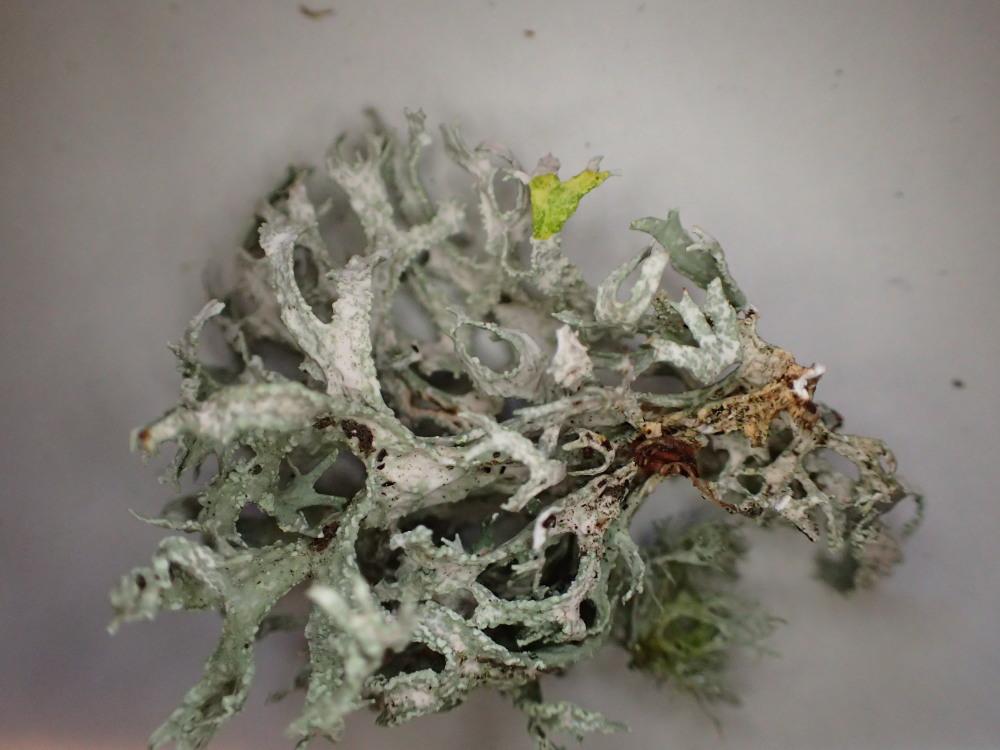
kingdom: Fungi
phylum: Ascomycota
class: Lecanoromycetes
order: Lecanorales
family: Parmeliaceae
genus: Evernia
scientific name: Evernia prunastri
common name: almindelig slåenlav
